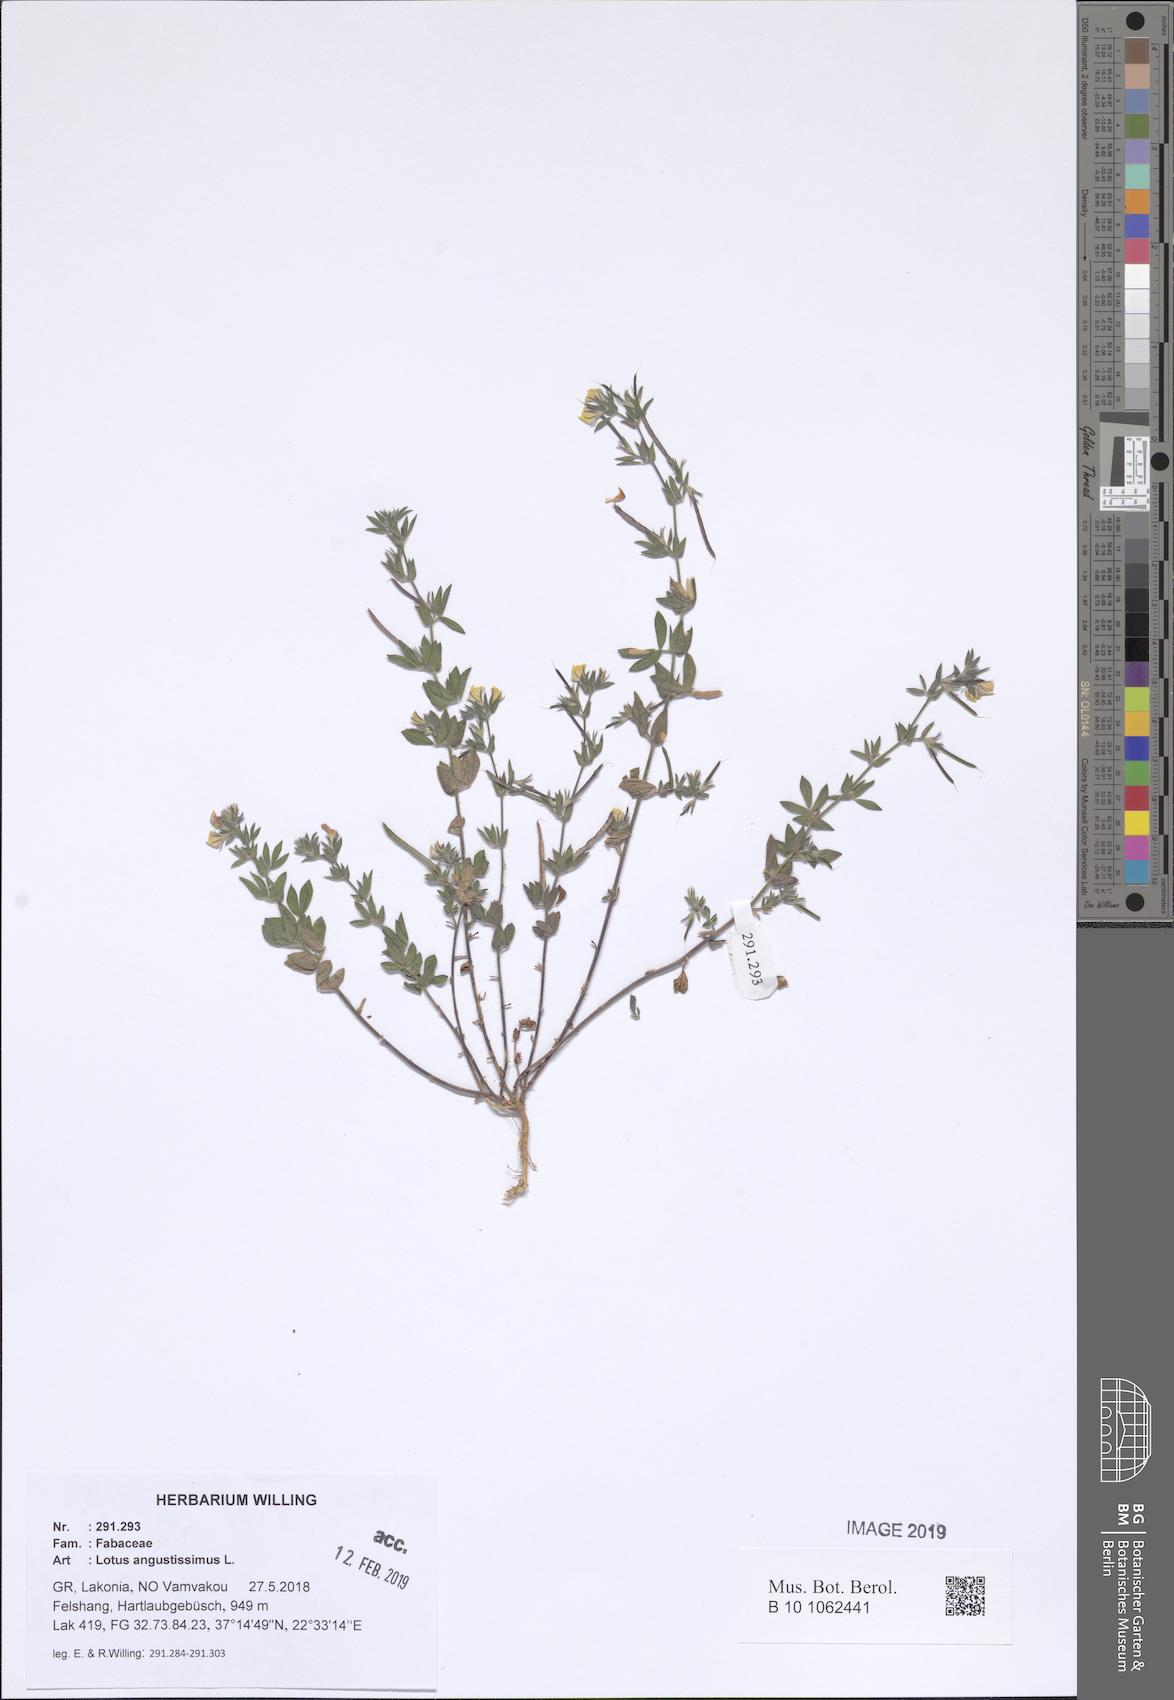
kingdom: Plantae
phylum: Tracheophyta
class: Magnoliopsida
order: Fabales
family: Fabaceae
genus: Lotus
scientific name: Lotus angustissimus
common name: Slender bird's-foot trefoil
